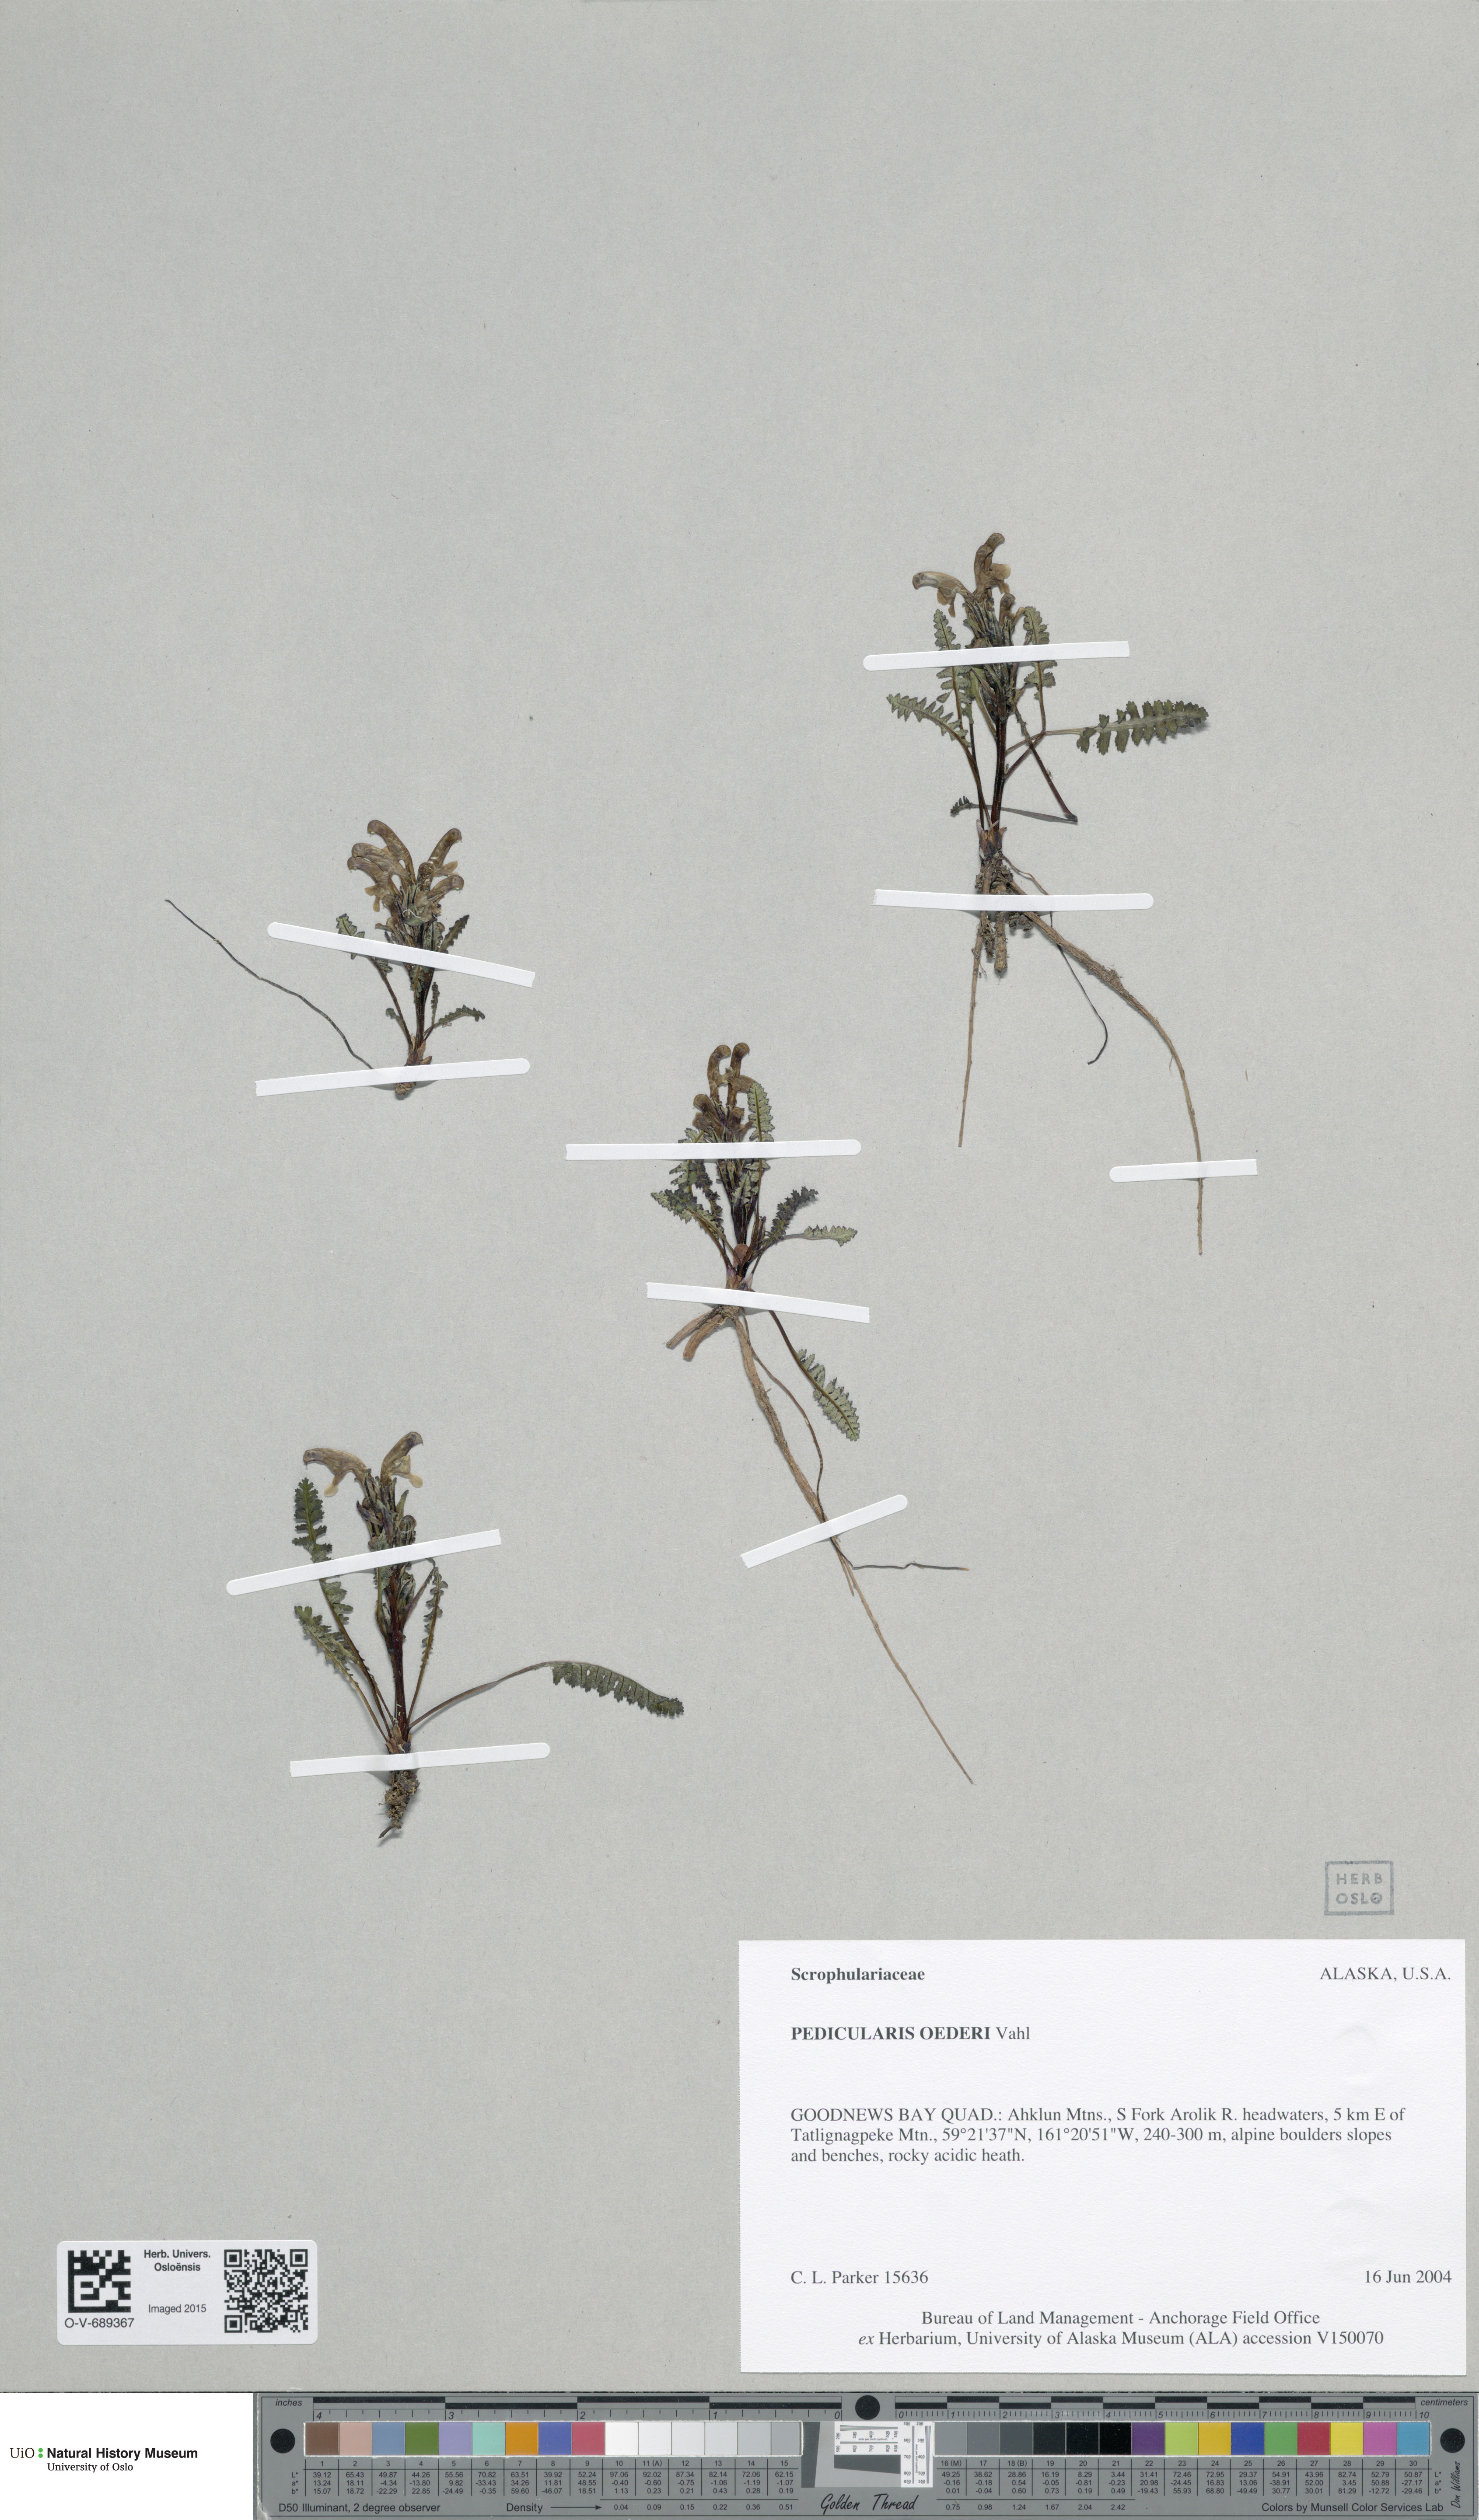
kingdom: Plantae
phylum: Tracheophyta
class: Magnoliopsida
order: Lamiales
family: Orobanchaceae
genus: Pedicularis
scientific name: Pedicularis oederi
